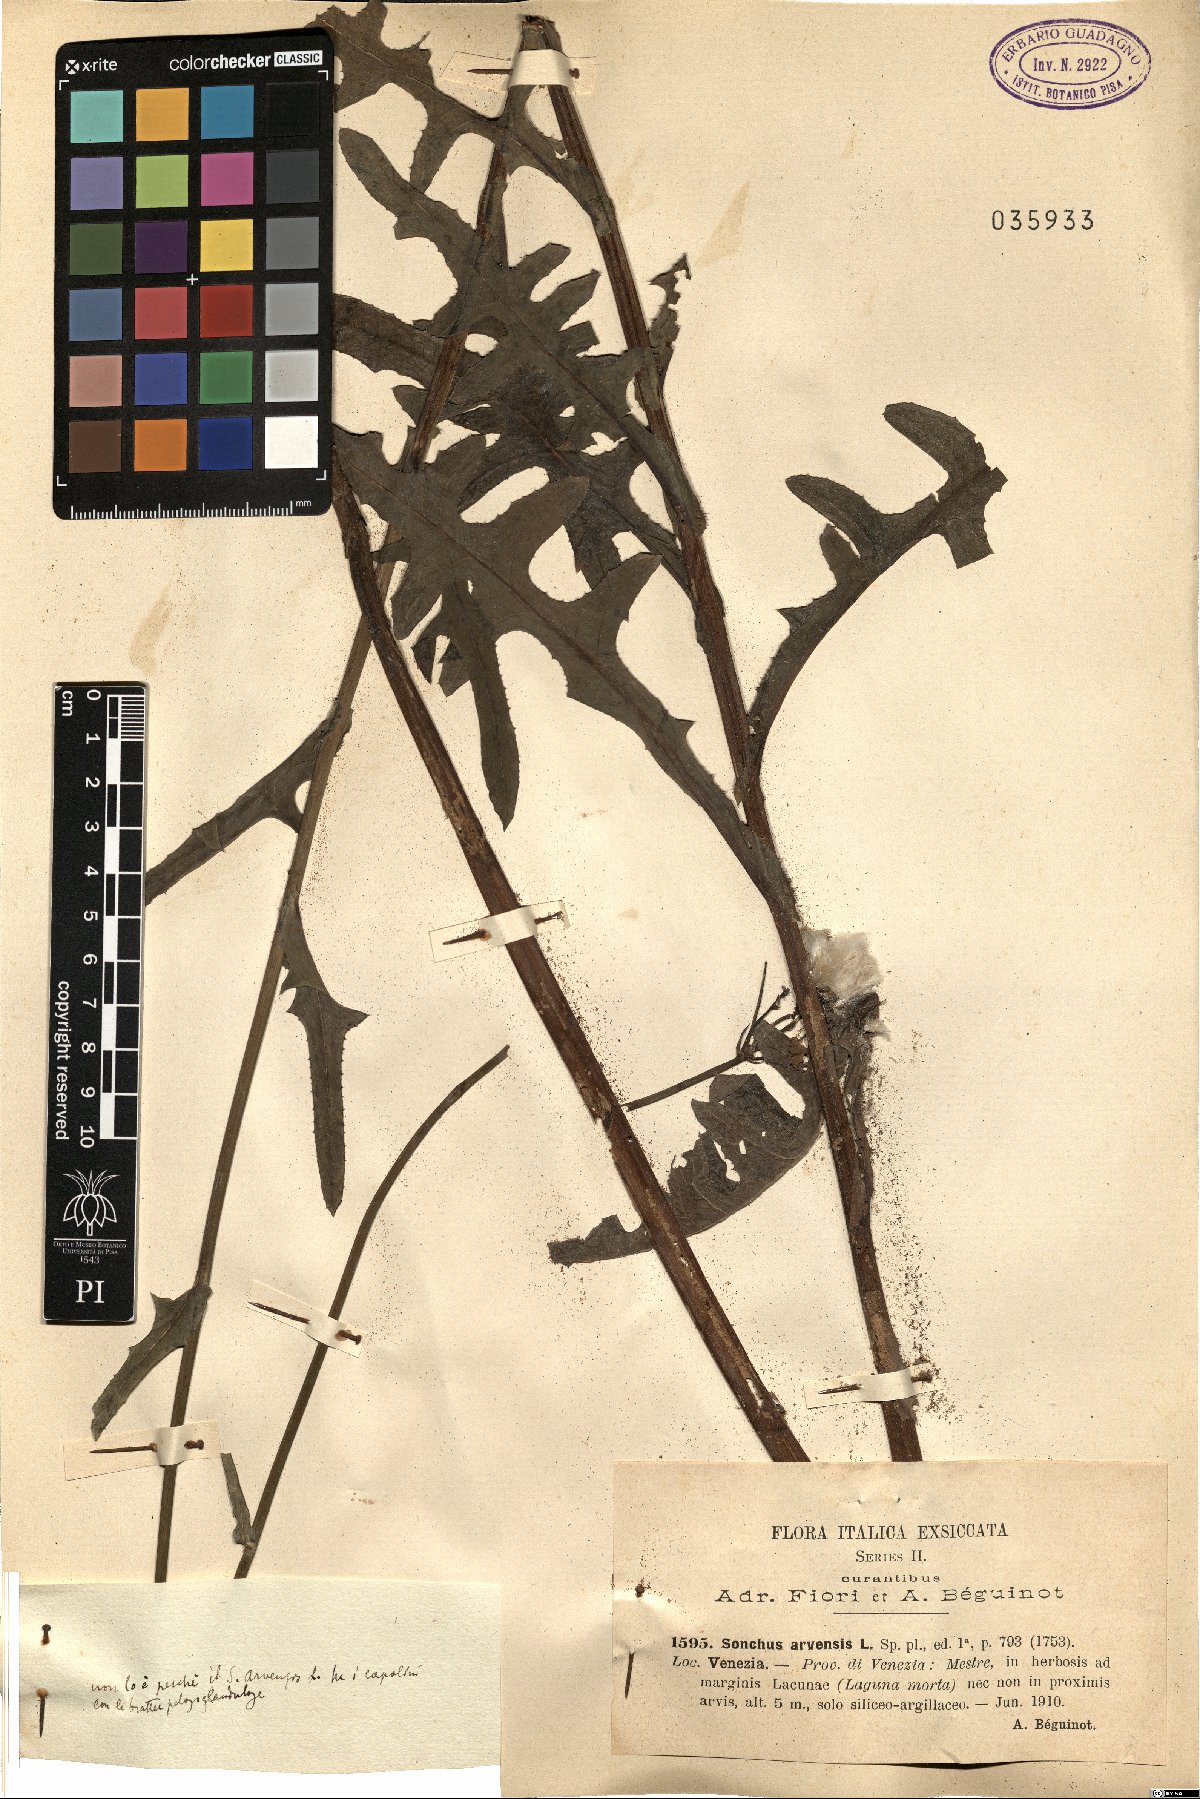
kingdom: Plantae
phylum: Tracheophyta
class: Magnoliopsida
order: Asterales
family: Asteraceae
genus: Sonchus
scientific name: Sonchus arvensis
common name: Perennial sow-thistle
